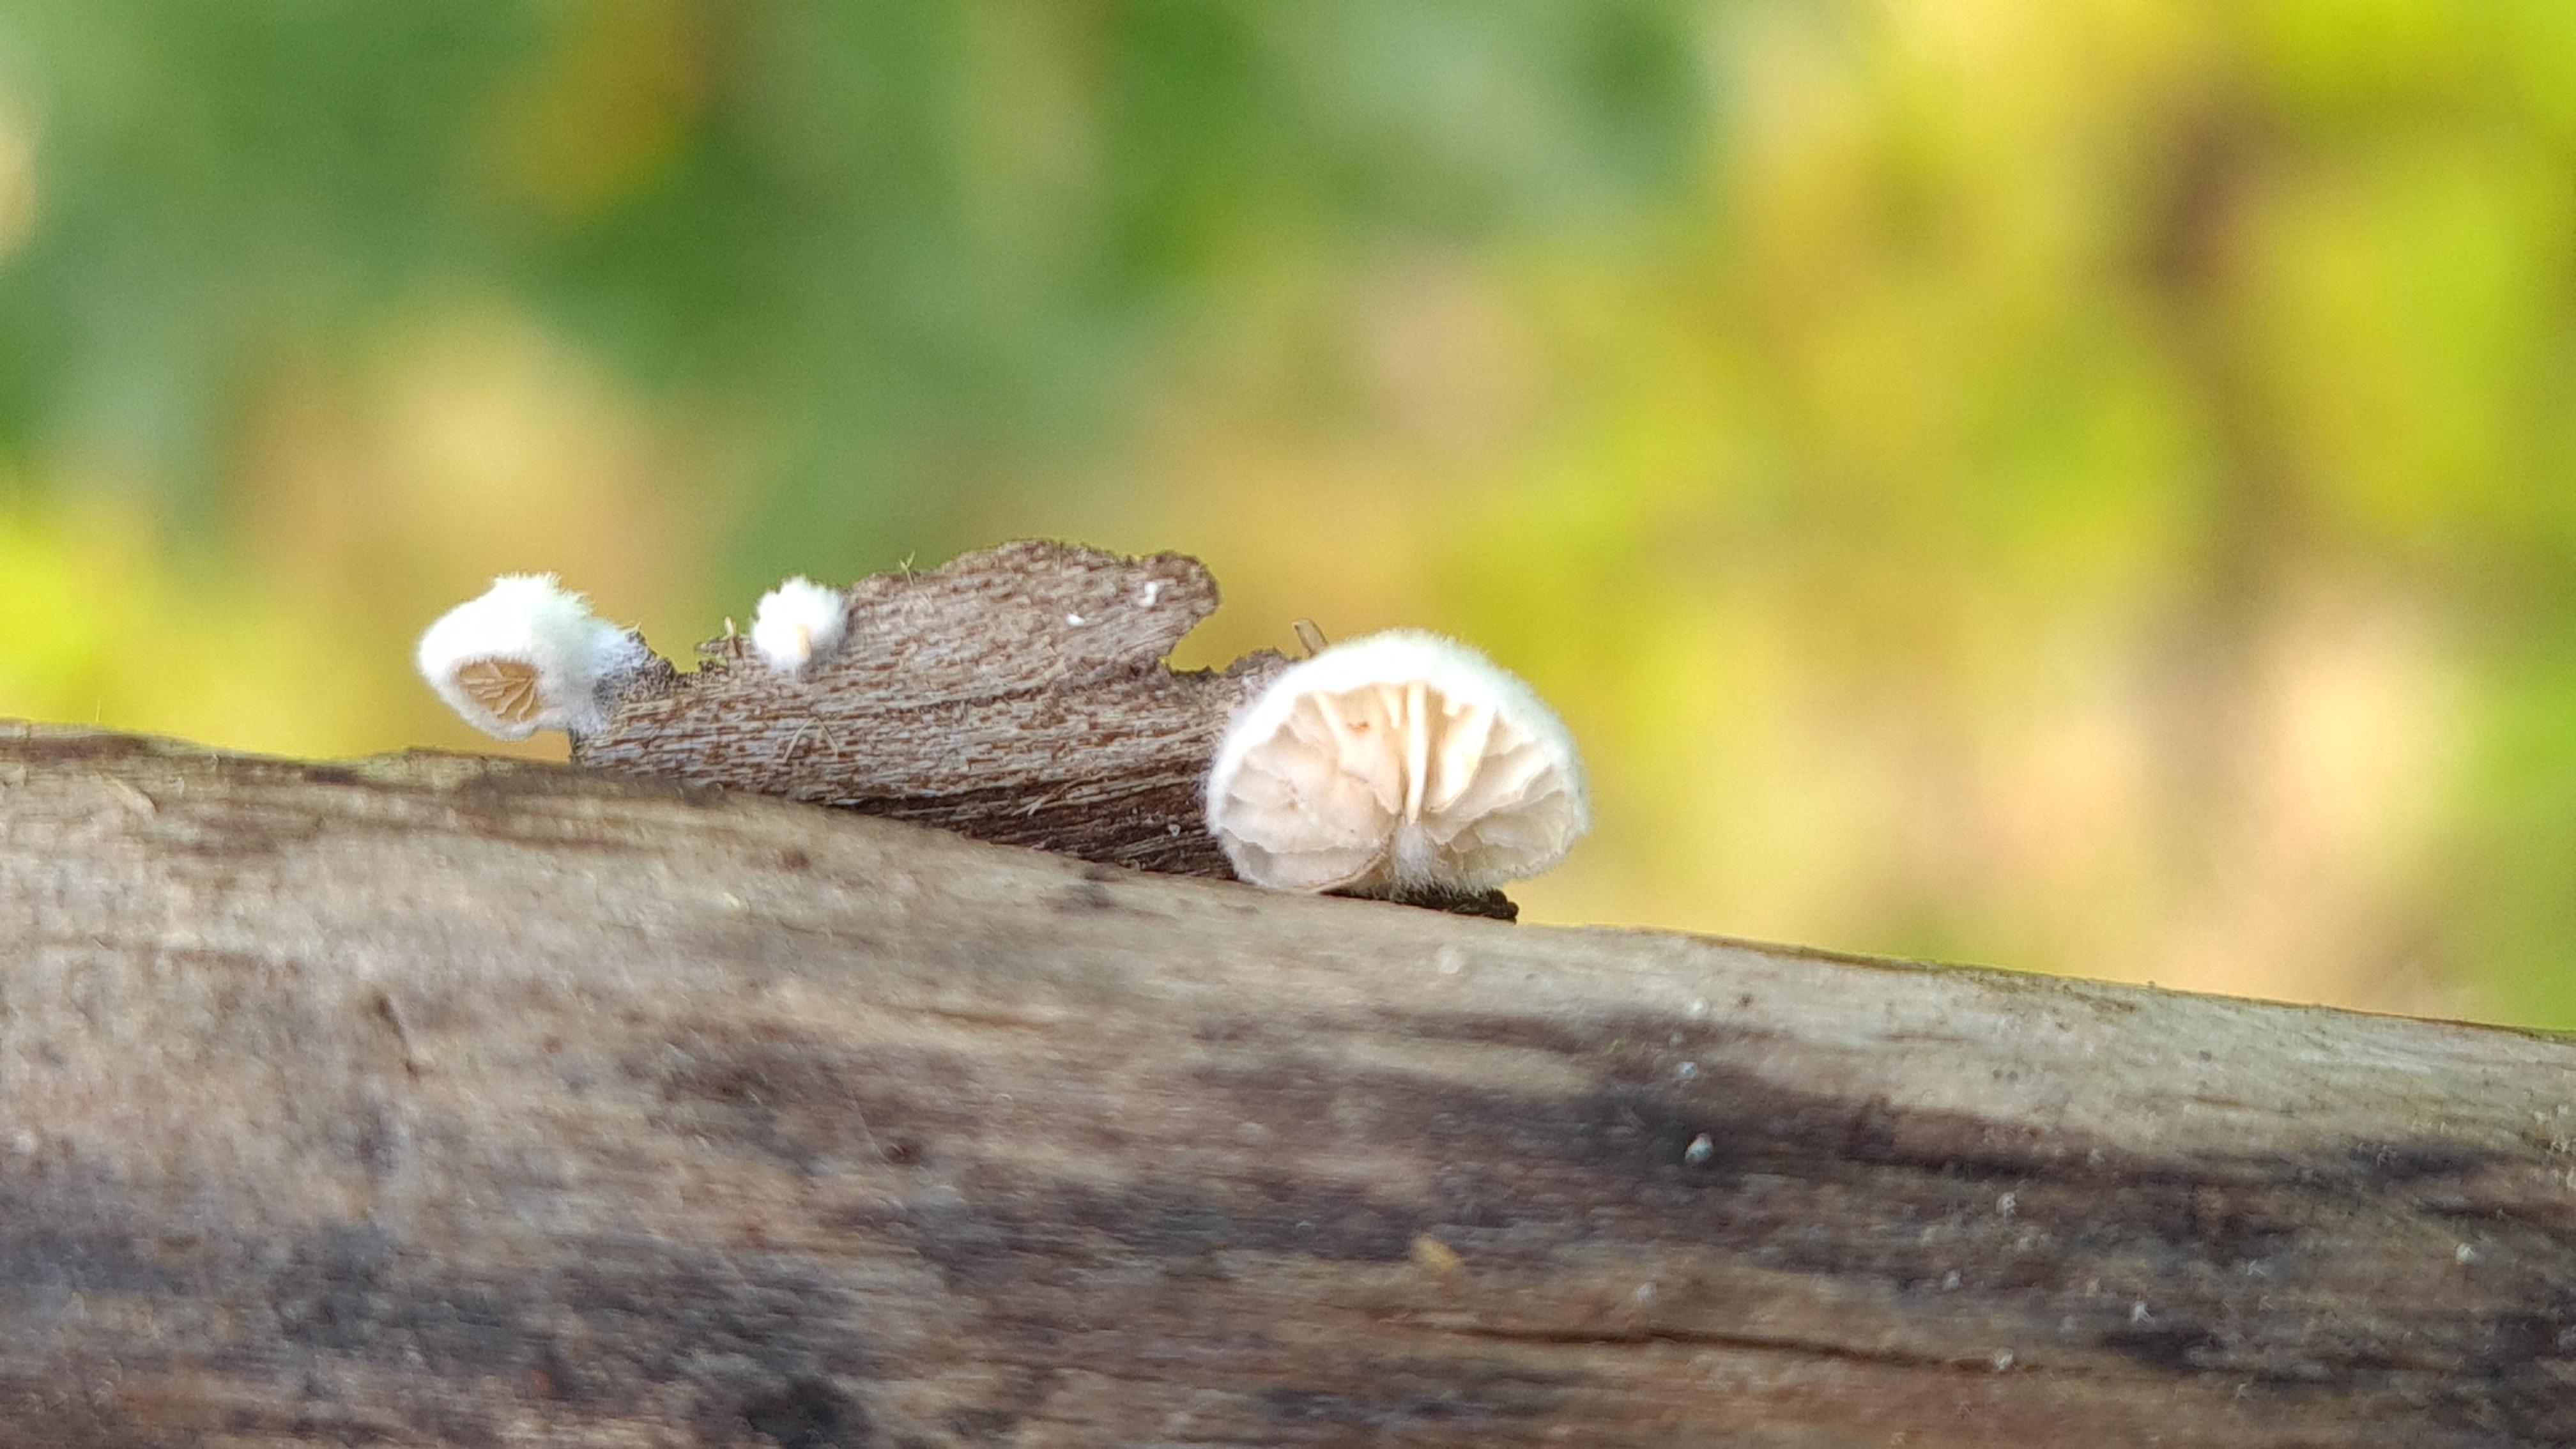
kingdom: Fungi
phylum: Basidiomycota
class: Agaricomycetes
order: Agaricales
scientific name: Agaricales
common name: champignonordenen
